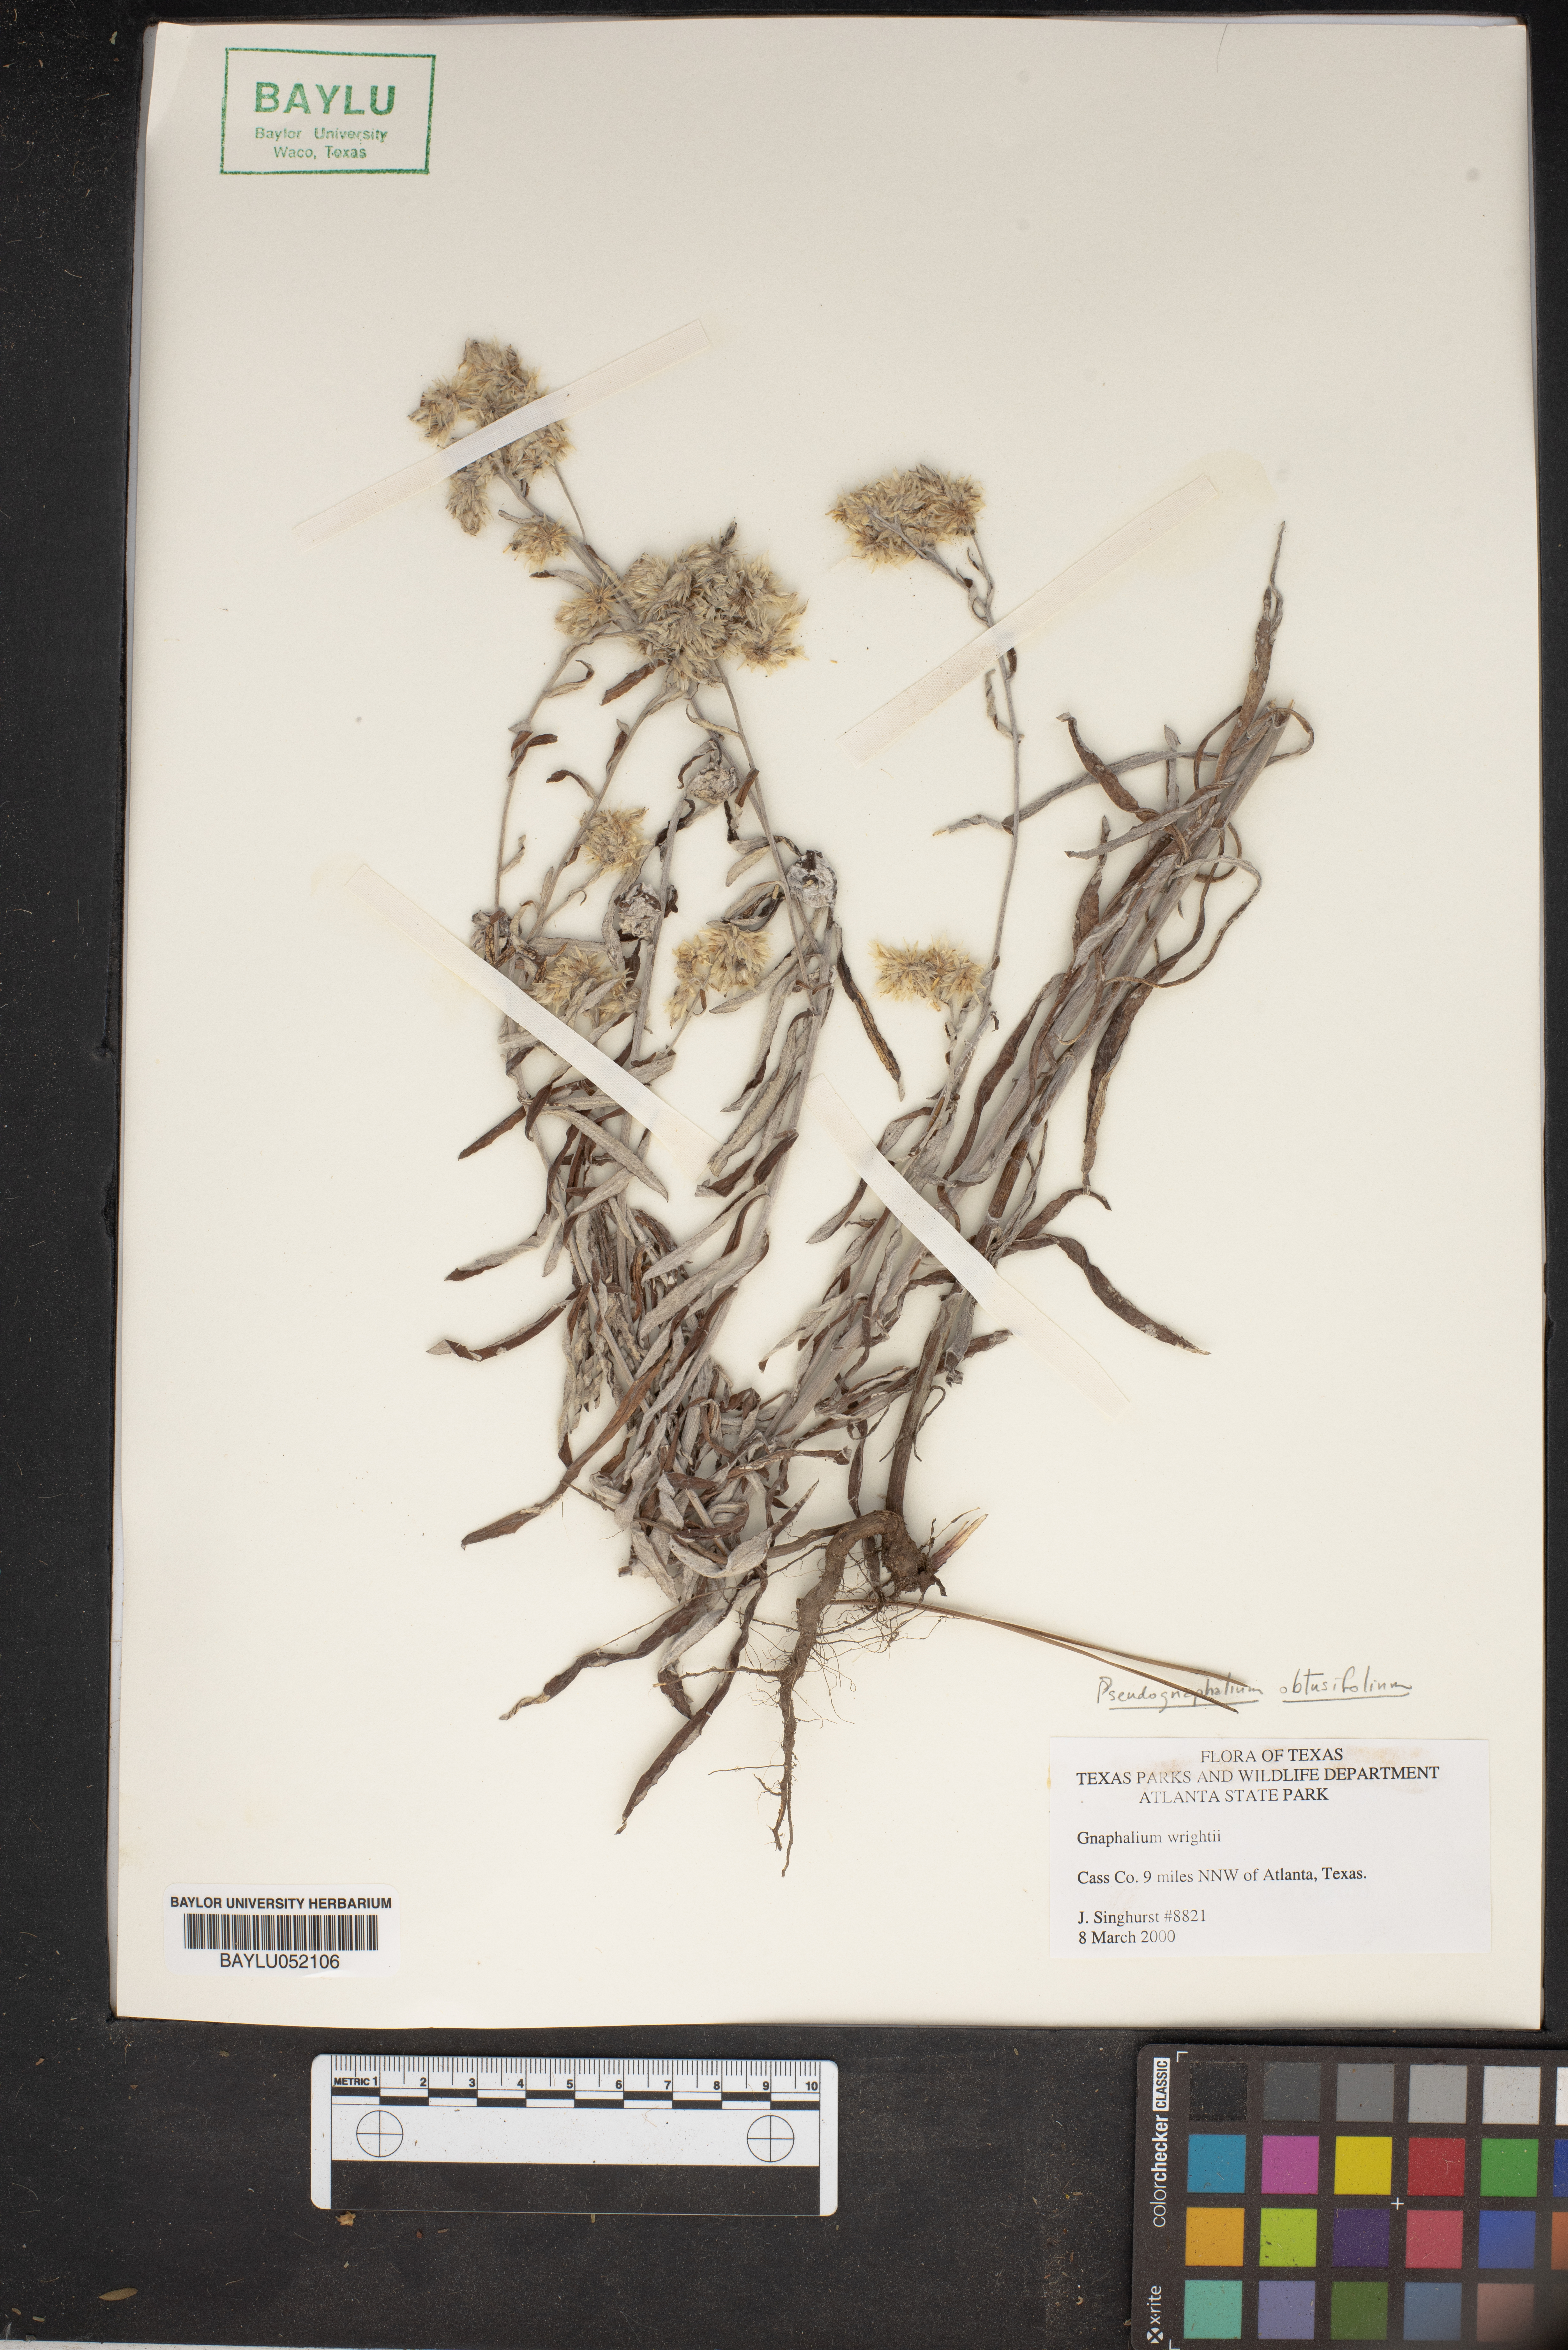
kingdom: Plantae
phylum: Tracheophyta
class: Magnoliopsida
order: Asterales
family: Asteraceae
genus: Pseudognaphalium
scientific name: Pseudognaphalium canescens
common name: Wright's rabbit-tobacco
